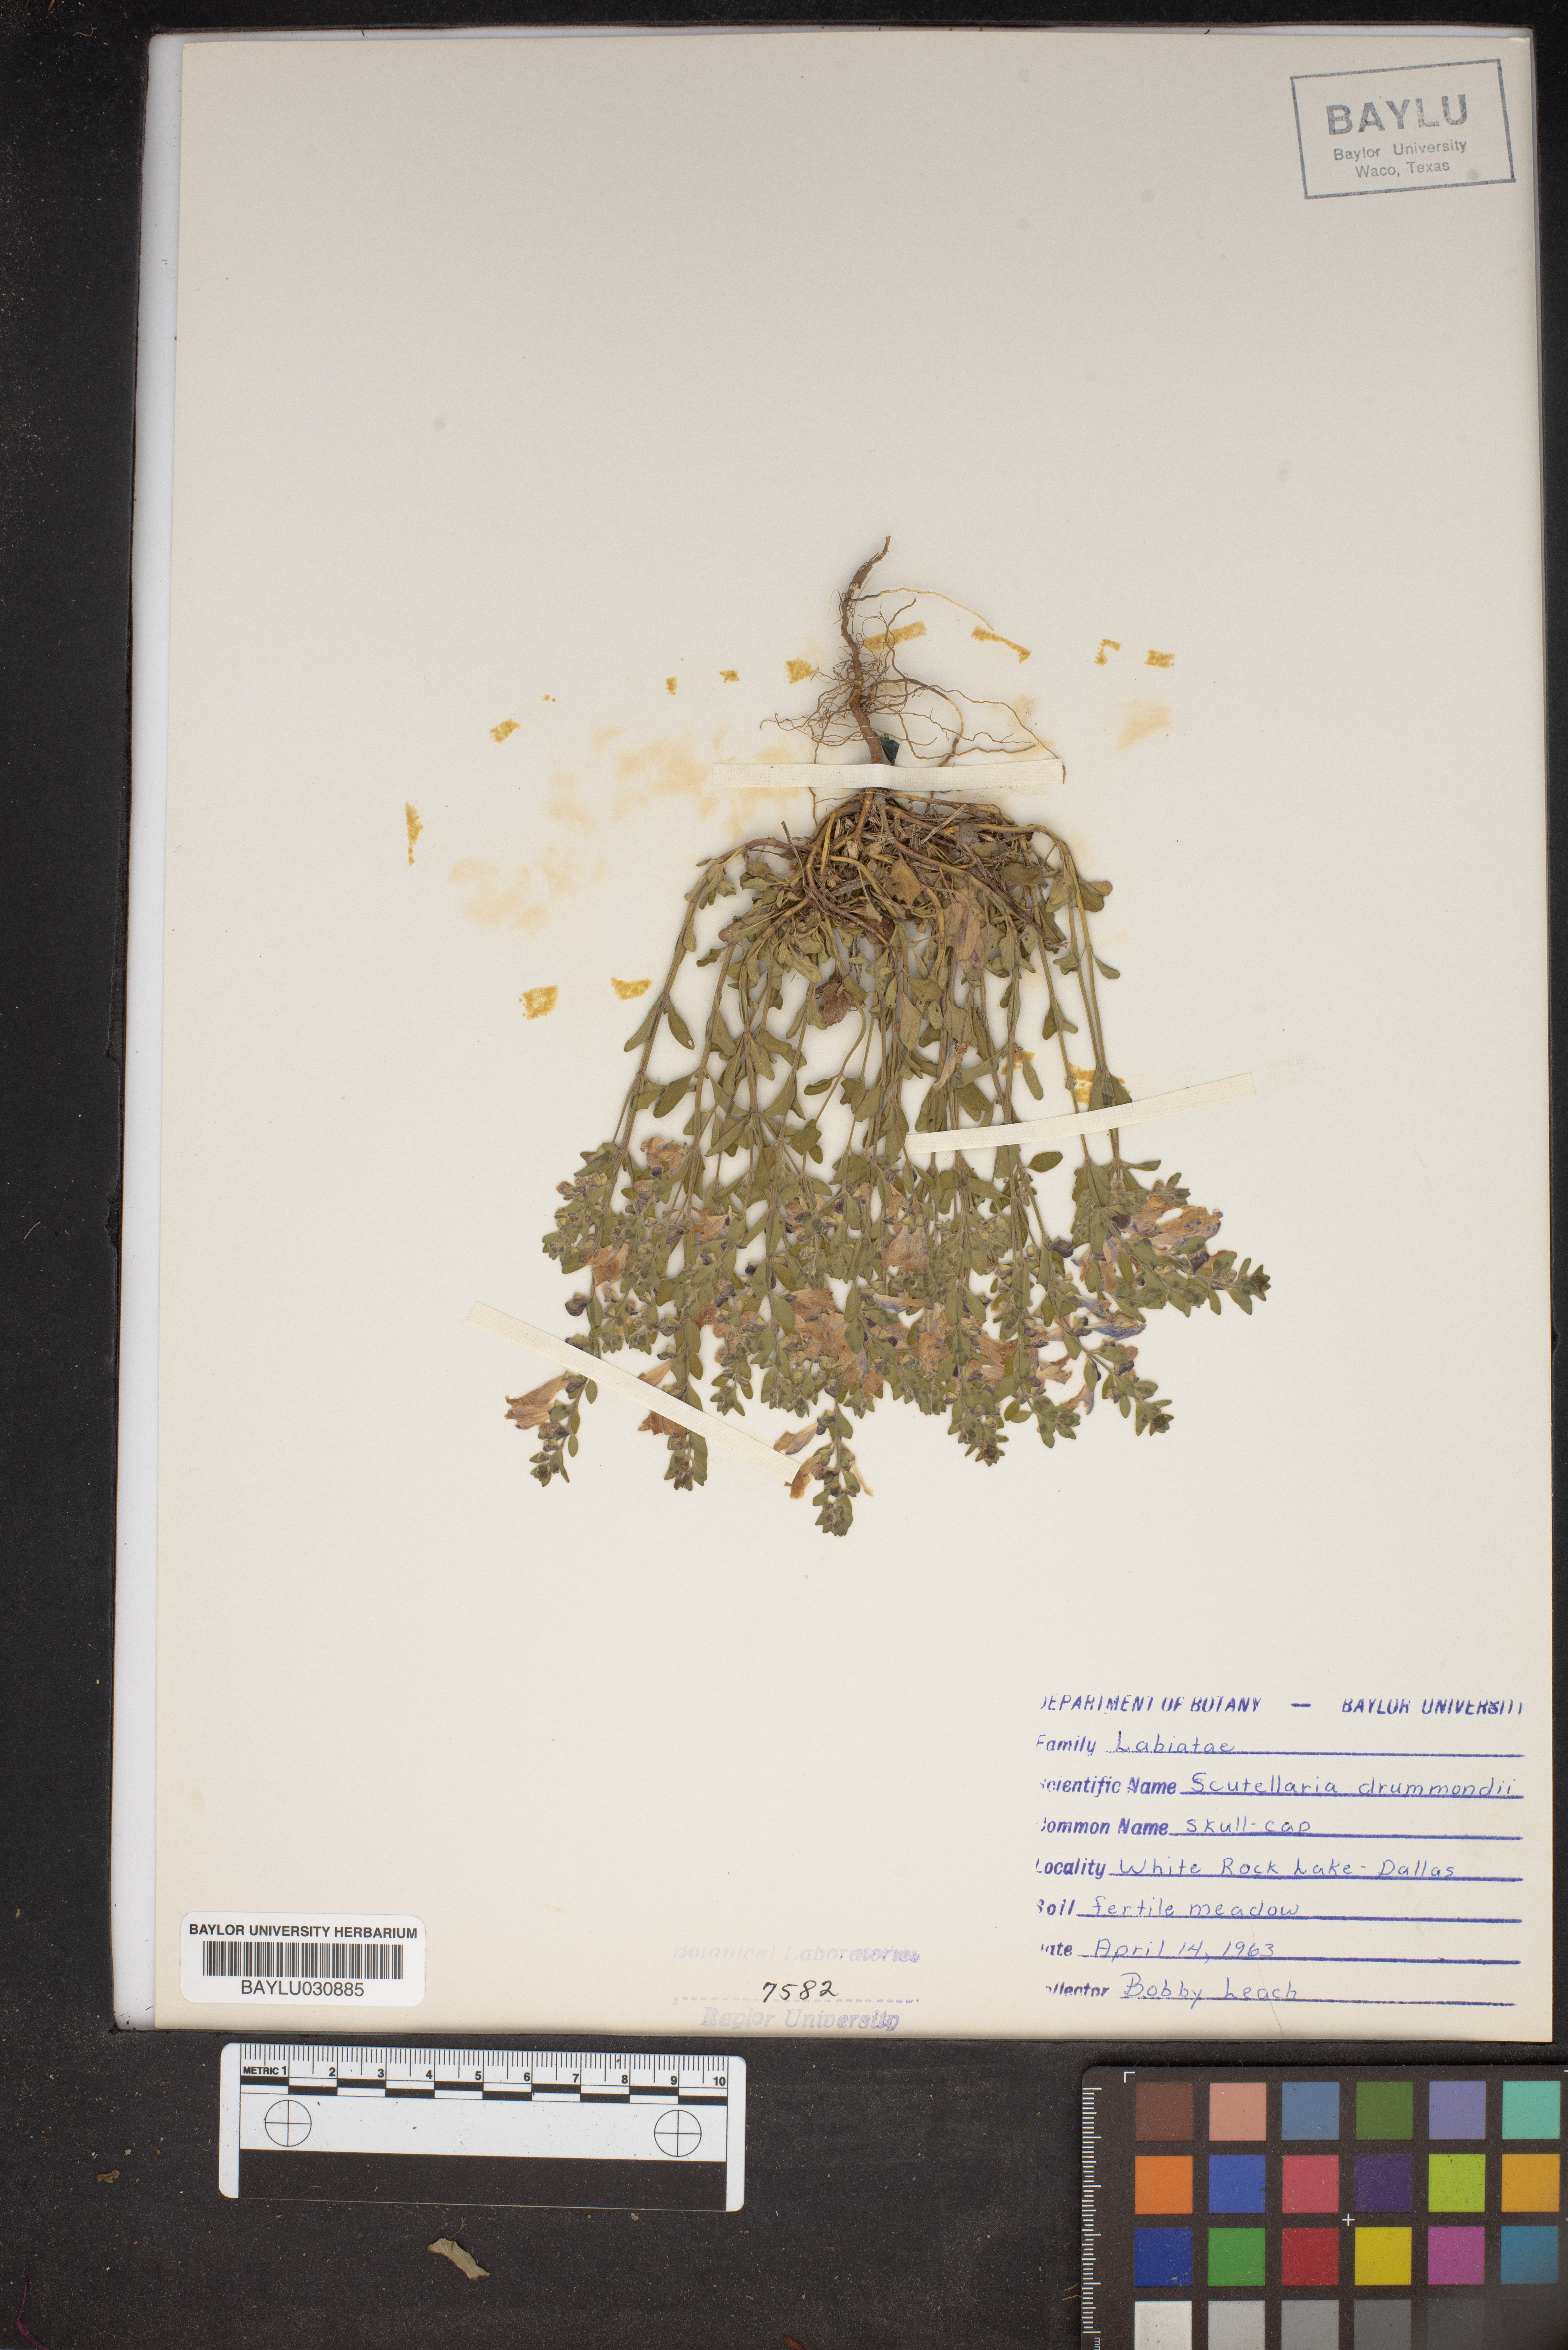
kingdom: Plantae
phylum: Tracheophyta
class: Magnoliopsida
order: Lamiales
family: Lamiaceae
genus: Scutellaria
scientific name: Scutellaria drummondii
